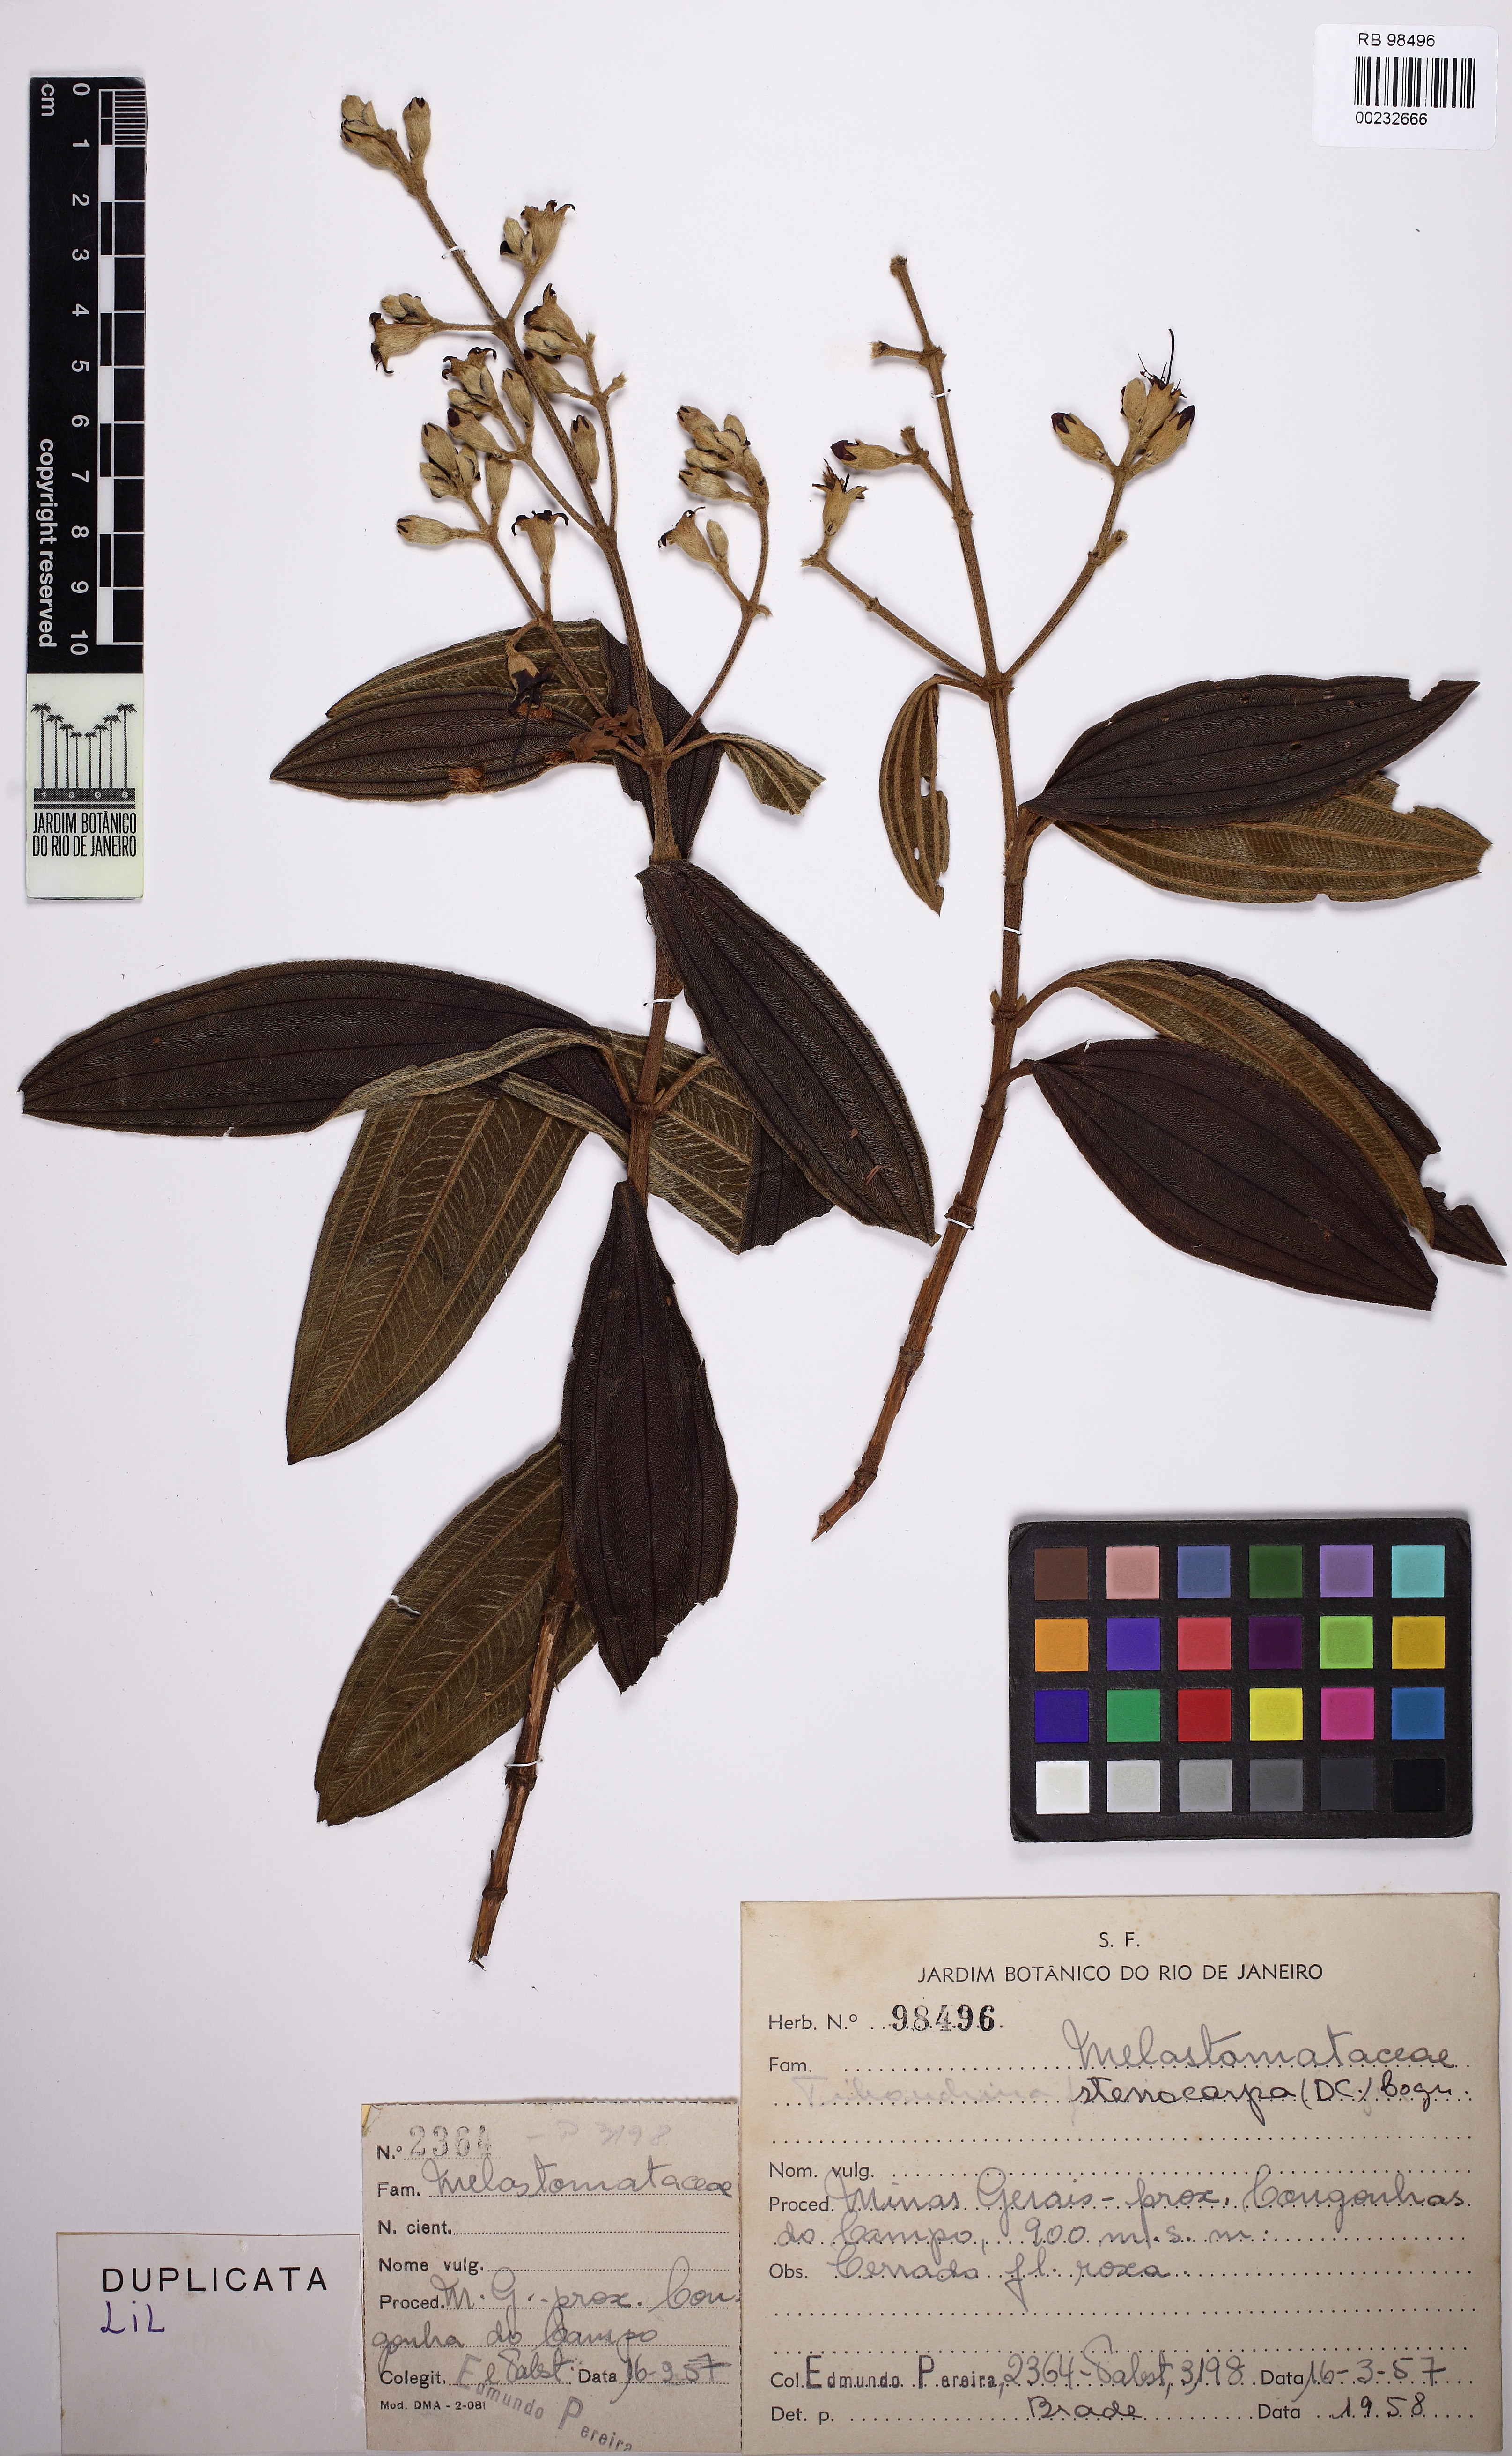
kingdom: Plantae
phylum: Tracheophyta
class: Magnoliopsida
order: Myrtales
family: Melastomataceae
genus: Chaetogastra
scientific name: Chaetogastra simplicicaulis
